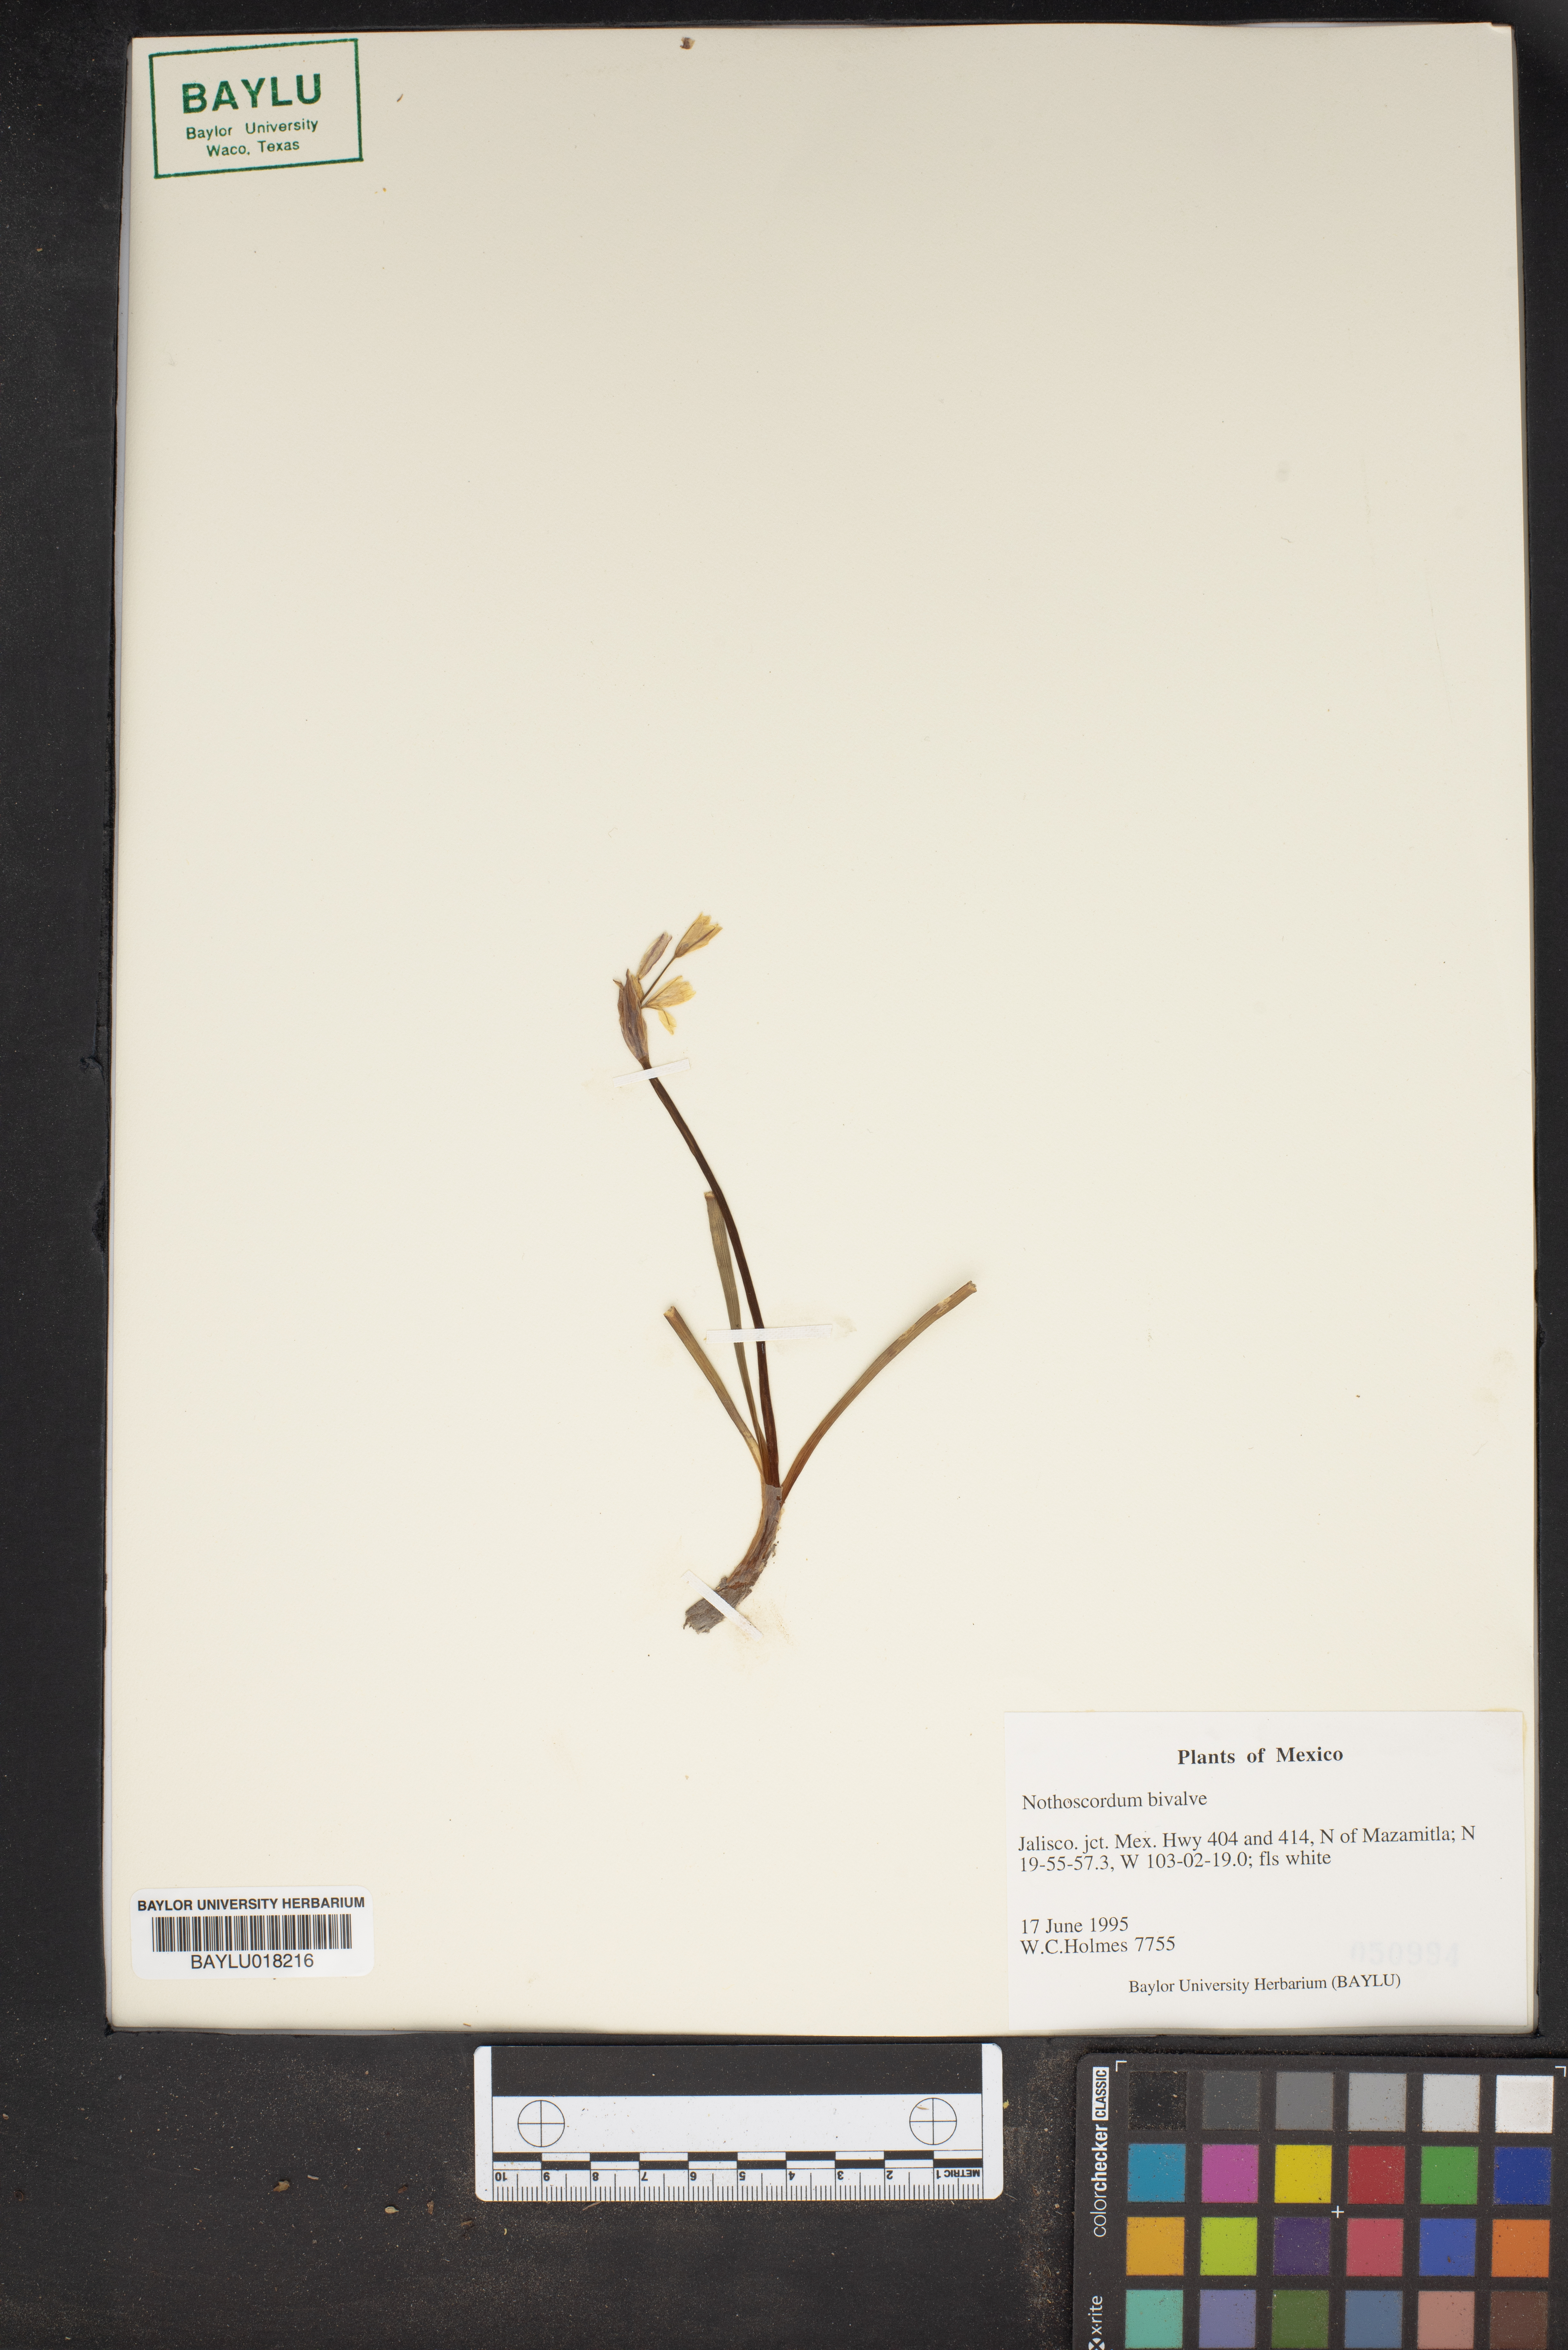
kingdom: Plantae
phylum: Tracheophyta
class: Liliopsida
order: Asparagales
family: Amaryllidaceae
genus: Nothoscordum
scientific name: Nothoscordum bivalve
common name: Crow-poison
